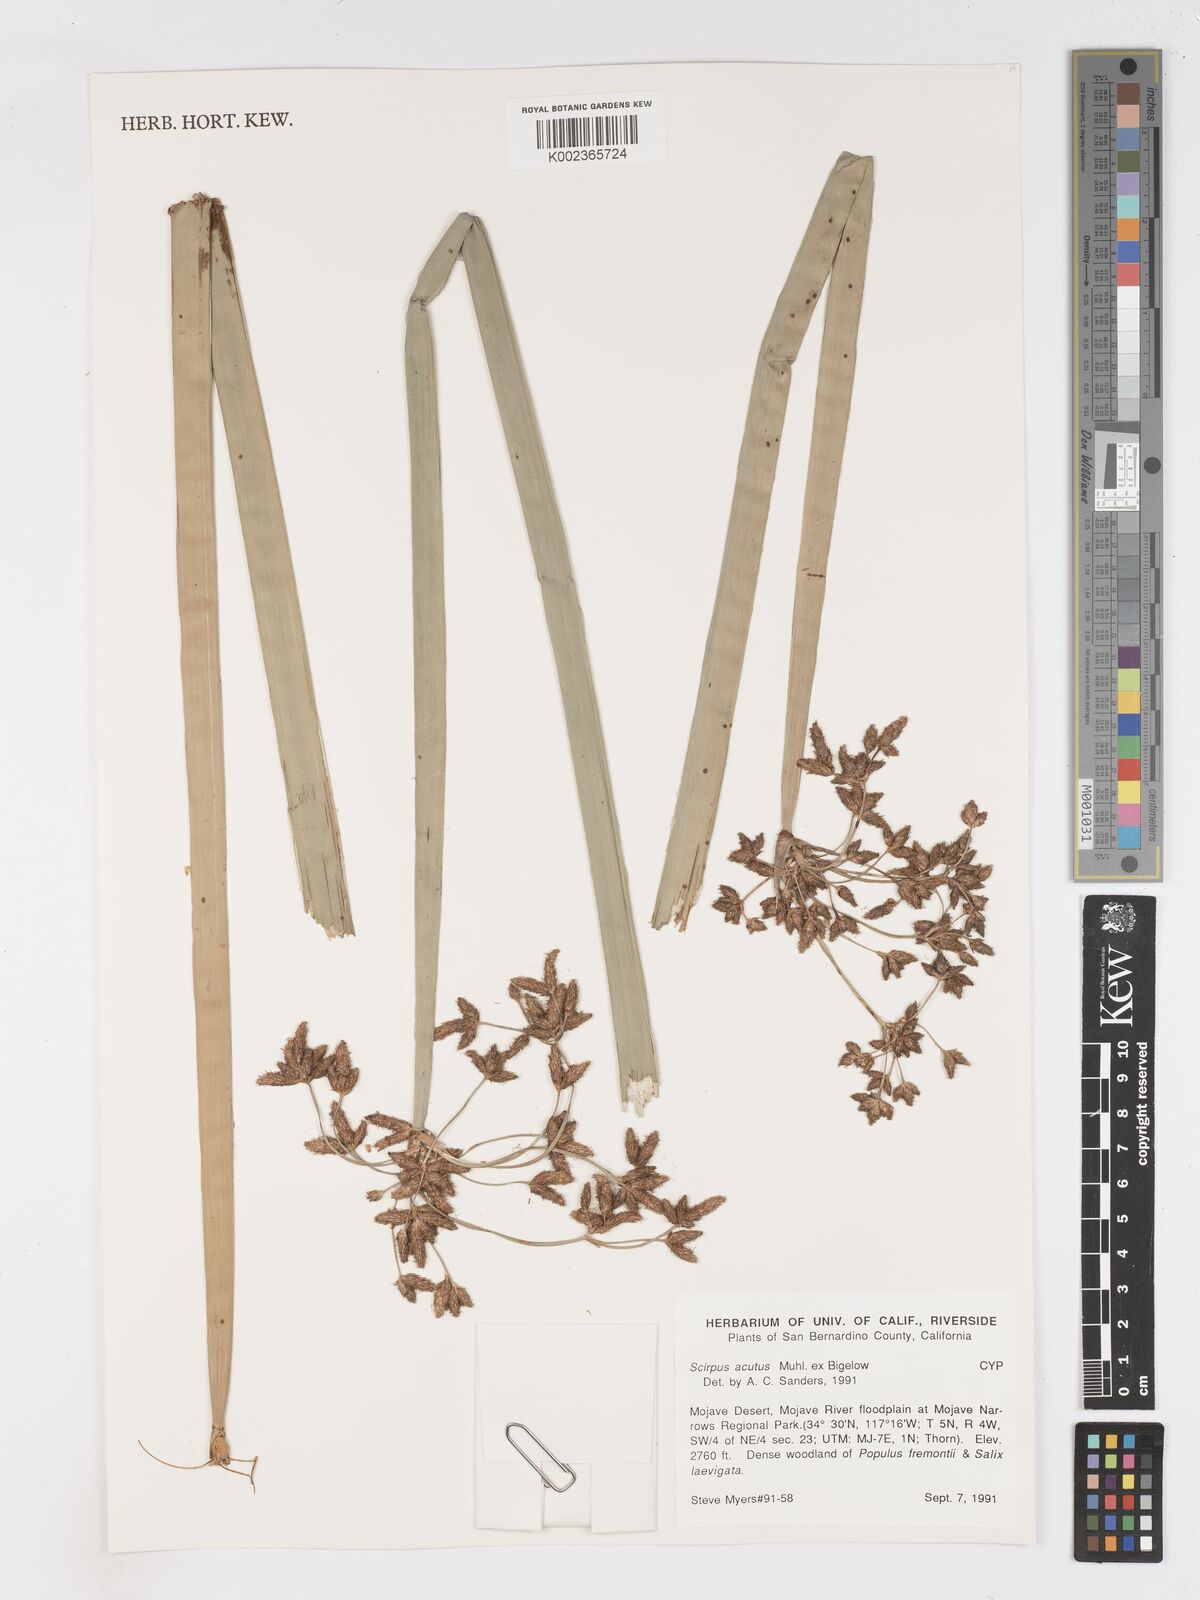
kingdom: Plantae
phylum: Tracheophyta
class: Liliopsida
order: Poales
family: Cyperaceae
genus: Schoenoplectus
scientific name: Schoenoplectus lacustris
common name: Common club-rush
